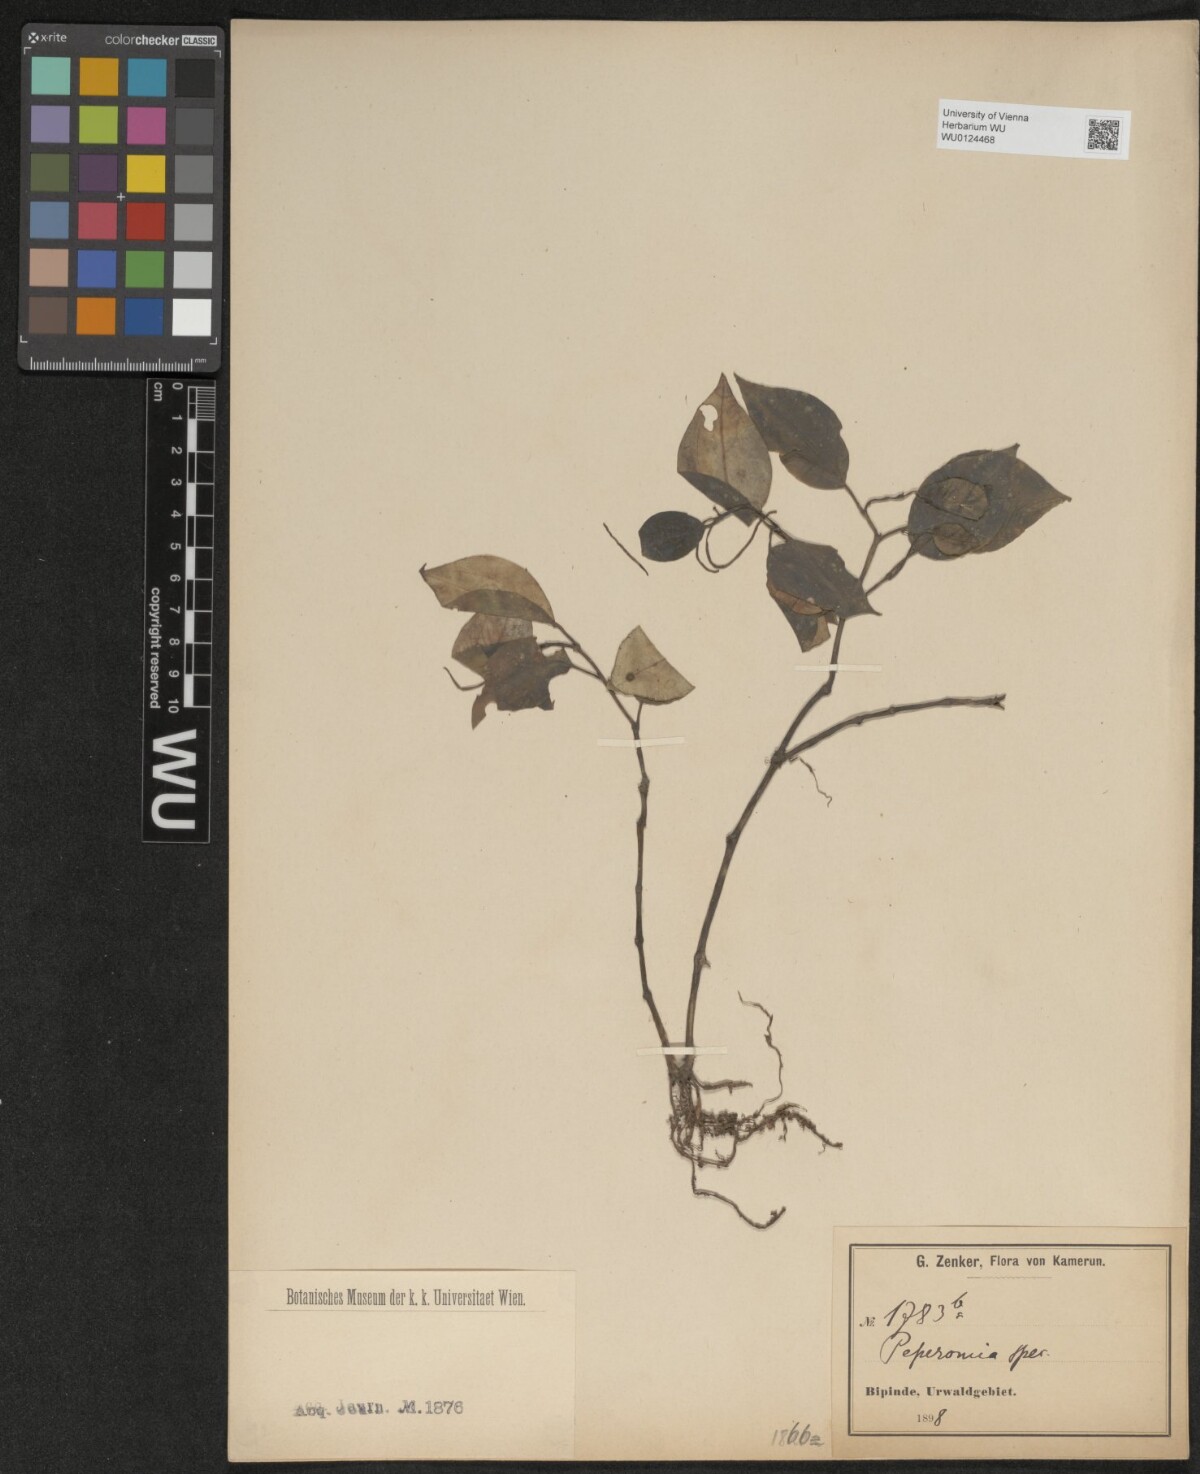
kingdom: Plantae
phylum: Tracheophyta
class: Magnoliopsida
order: Piperales
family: Piperaceae
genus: Peperomia
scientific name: Peperomia
